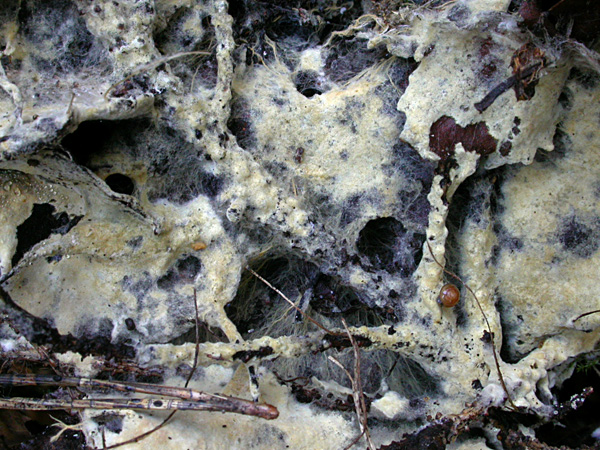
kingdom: Fungi
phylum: Basidiomycota
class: Agaricomycetes
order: Atheliales
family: Atheliaceae
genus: Amphinema
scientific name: Amphinema byssoides
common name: almindelig rodhinde
